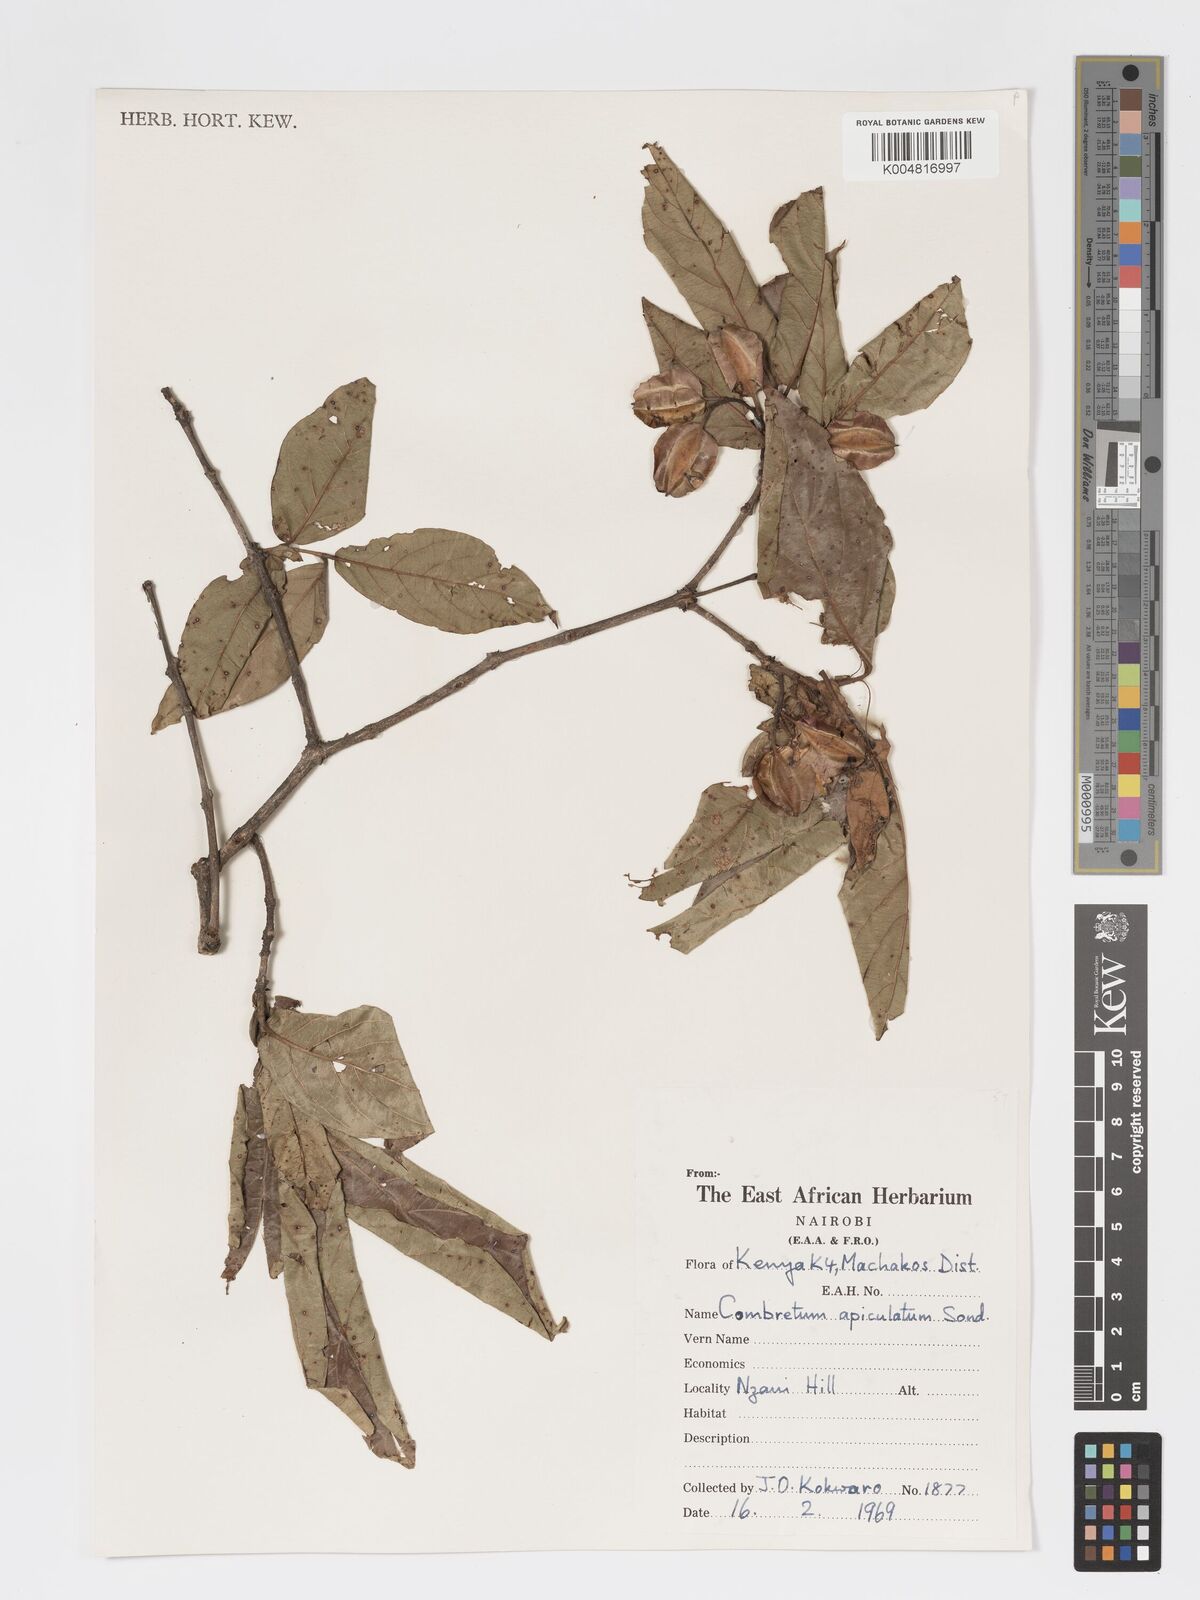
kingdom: Plantae
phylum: Tracheophyta
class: Magnoliopsida
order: Myrtales
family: Combretaceae
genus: Combretum
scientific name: Combretum apiculatum
